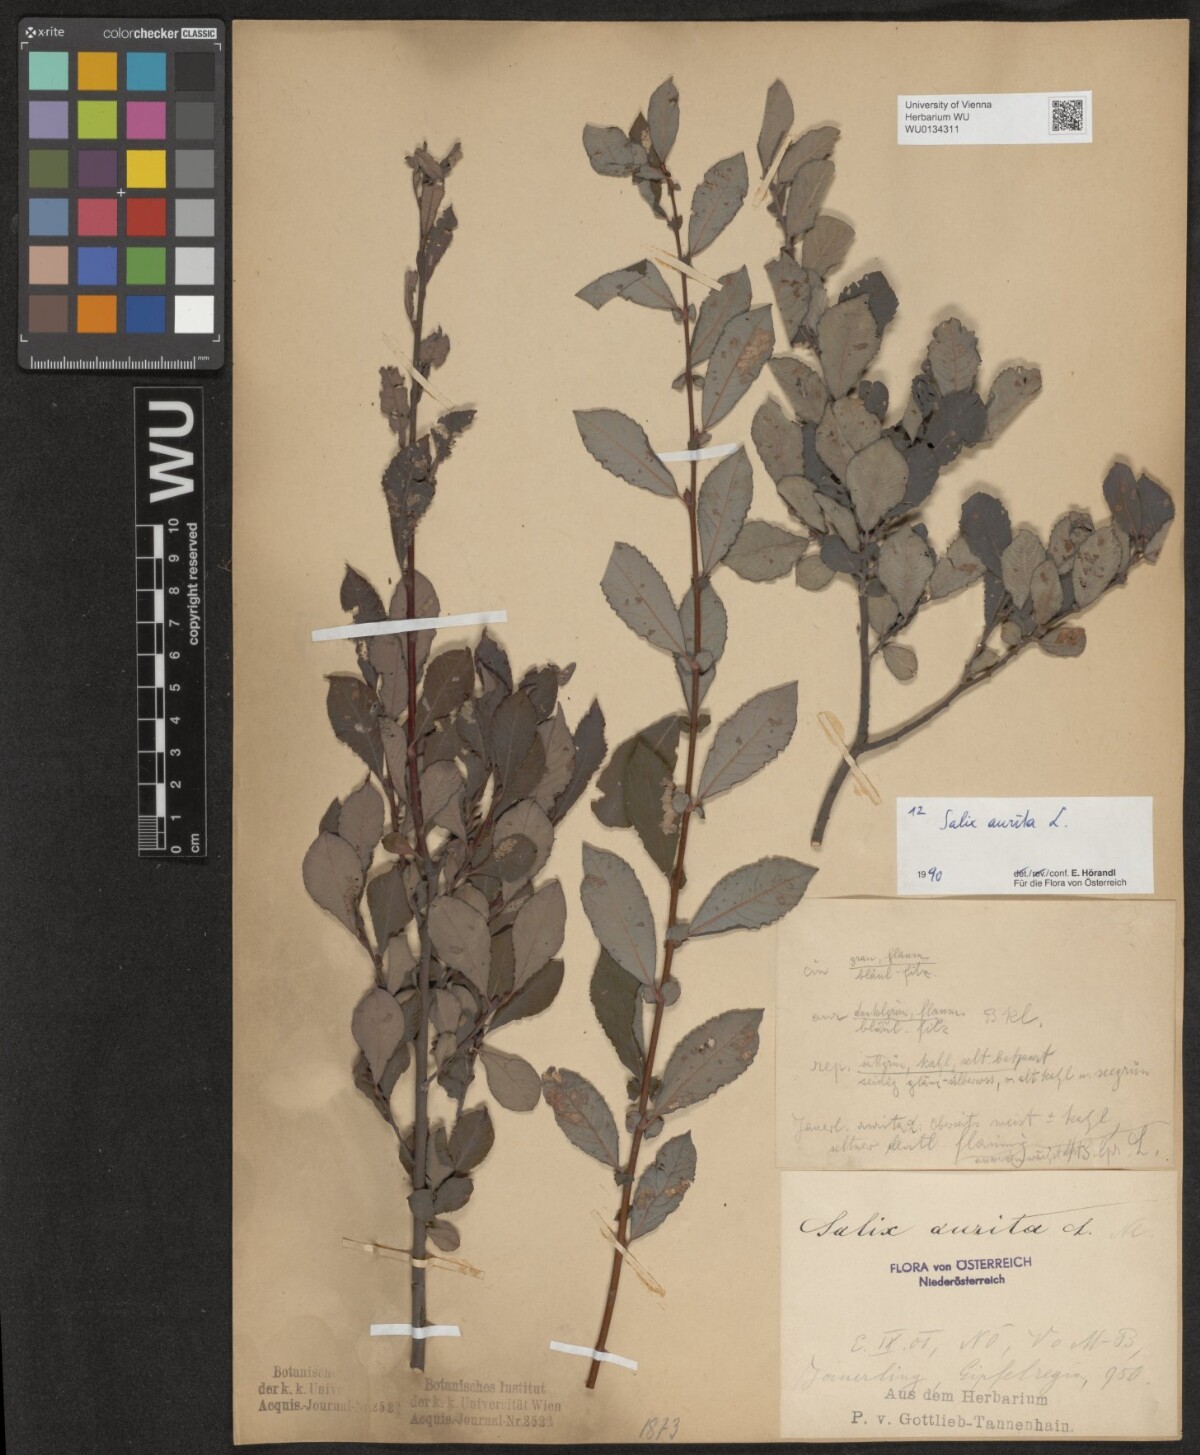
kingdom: Plantae
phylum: Tracheophyta
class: Magnoliopsida
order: Malpighiales
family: Salicaceae
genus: Salix
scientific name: Salix aurita
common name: Eared willow
